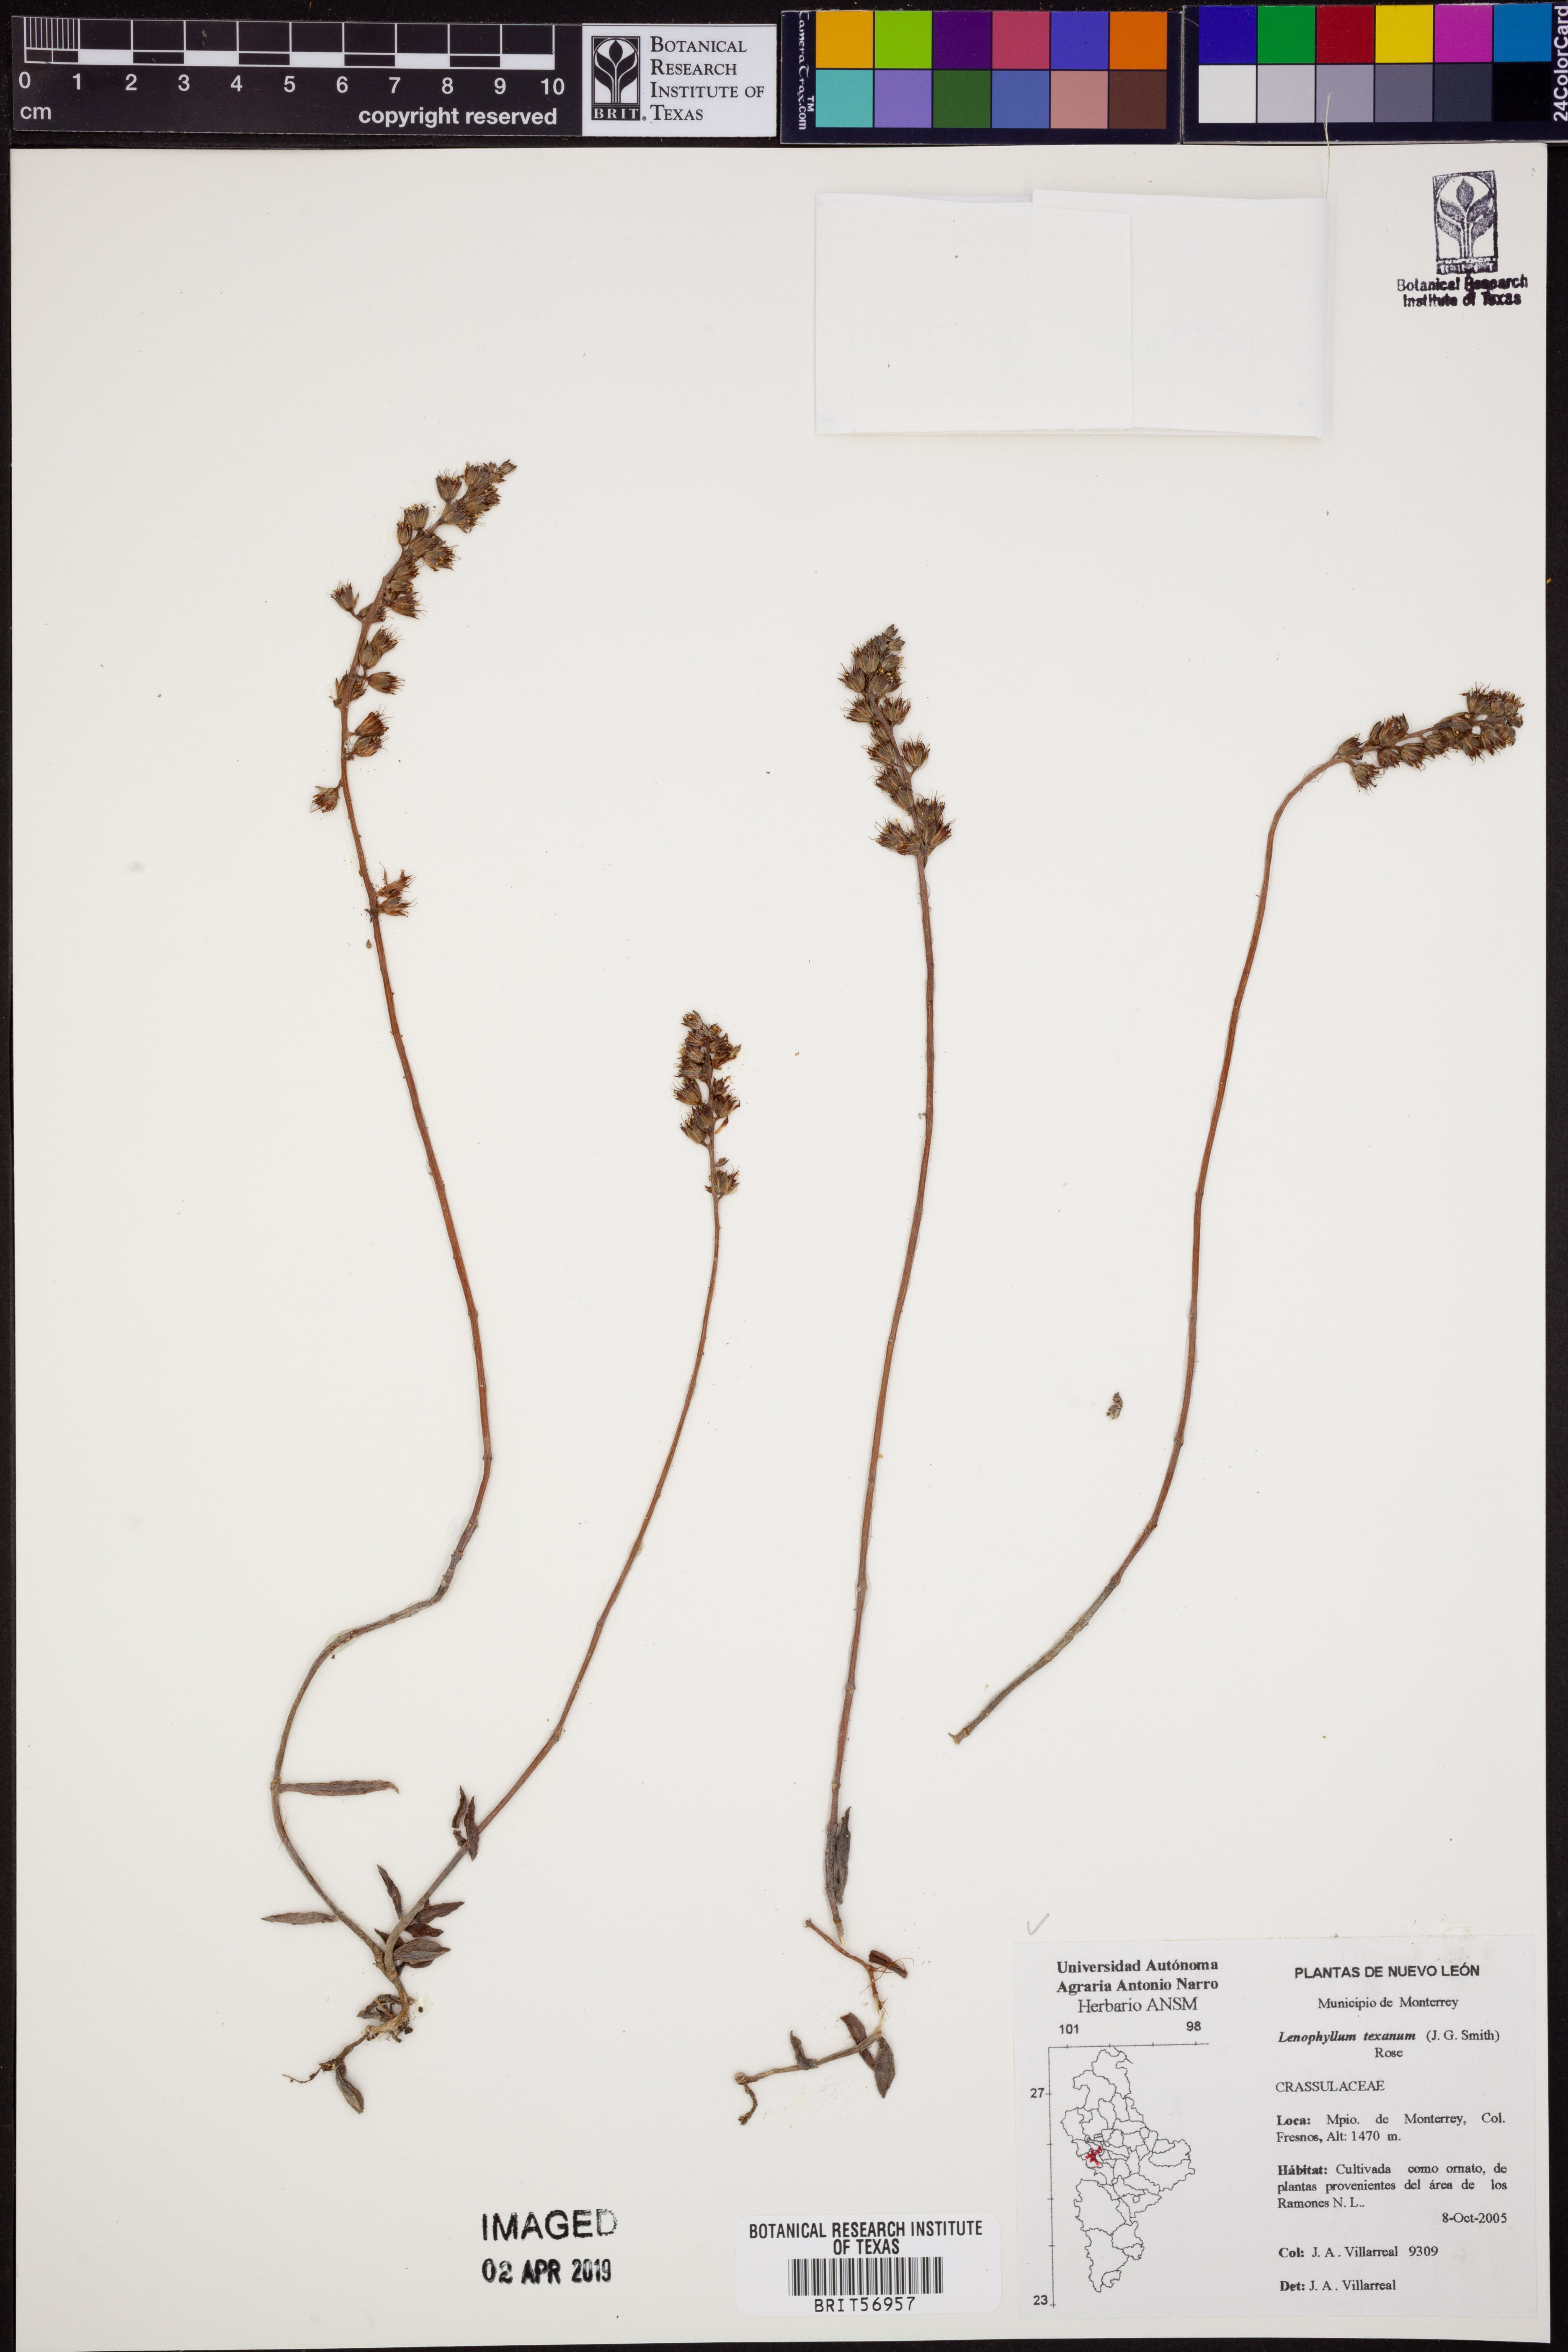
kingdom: Plantae
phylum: Tracheophyta
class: Magnoliopsida
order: Saxifragales
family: Crassulaceae
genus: Lenophyllum
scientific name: Lenophyllum texanum
